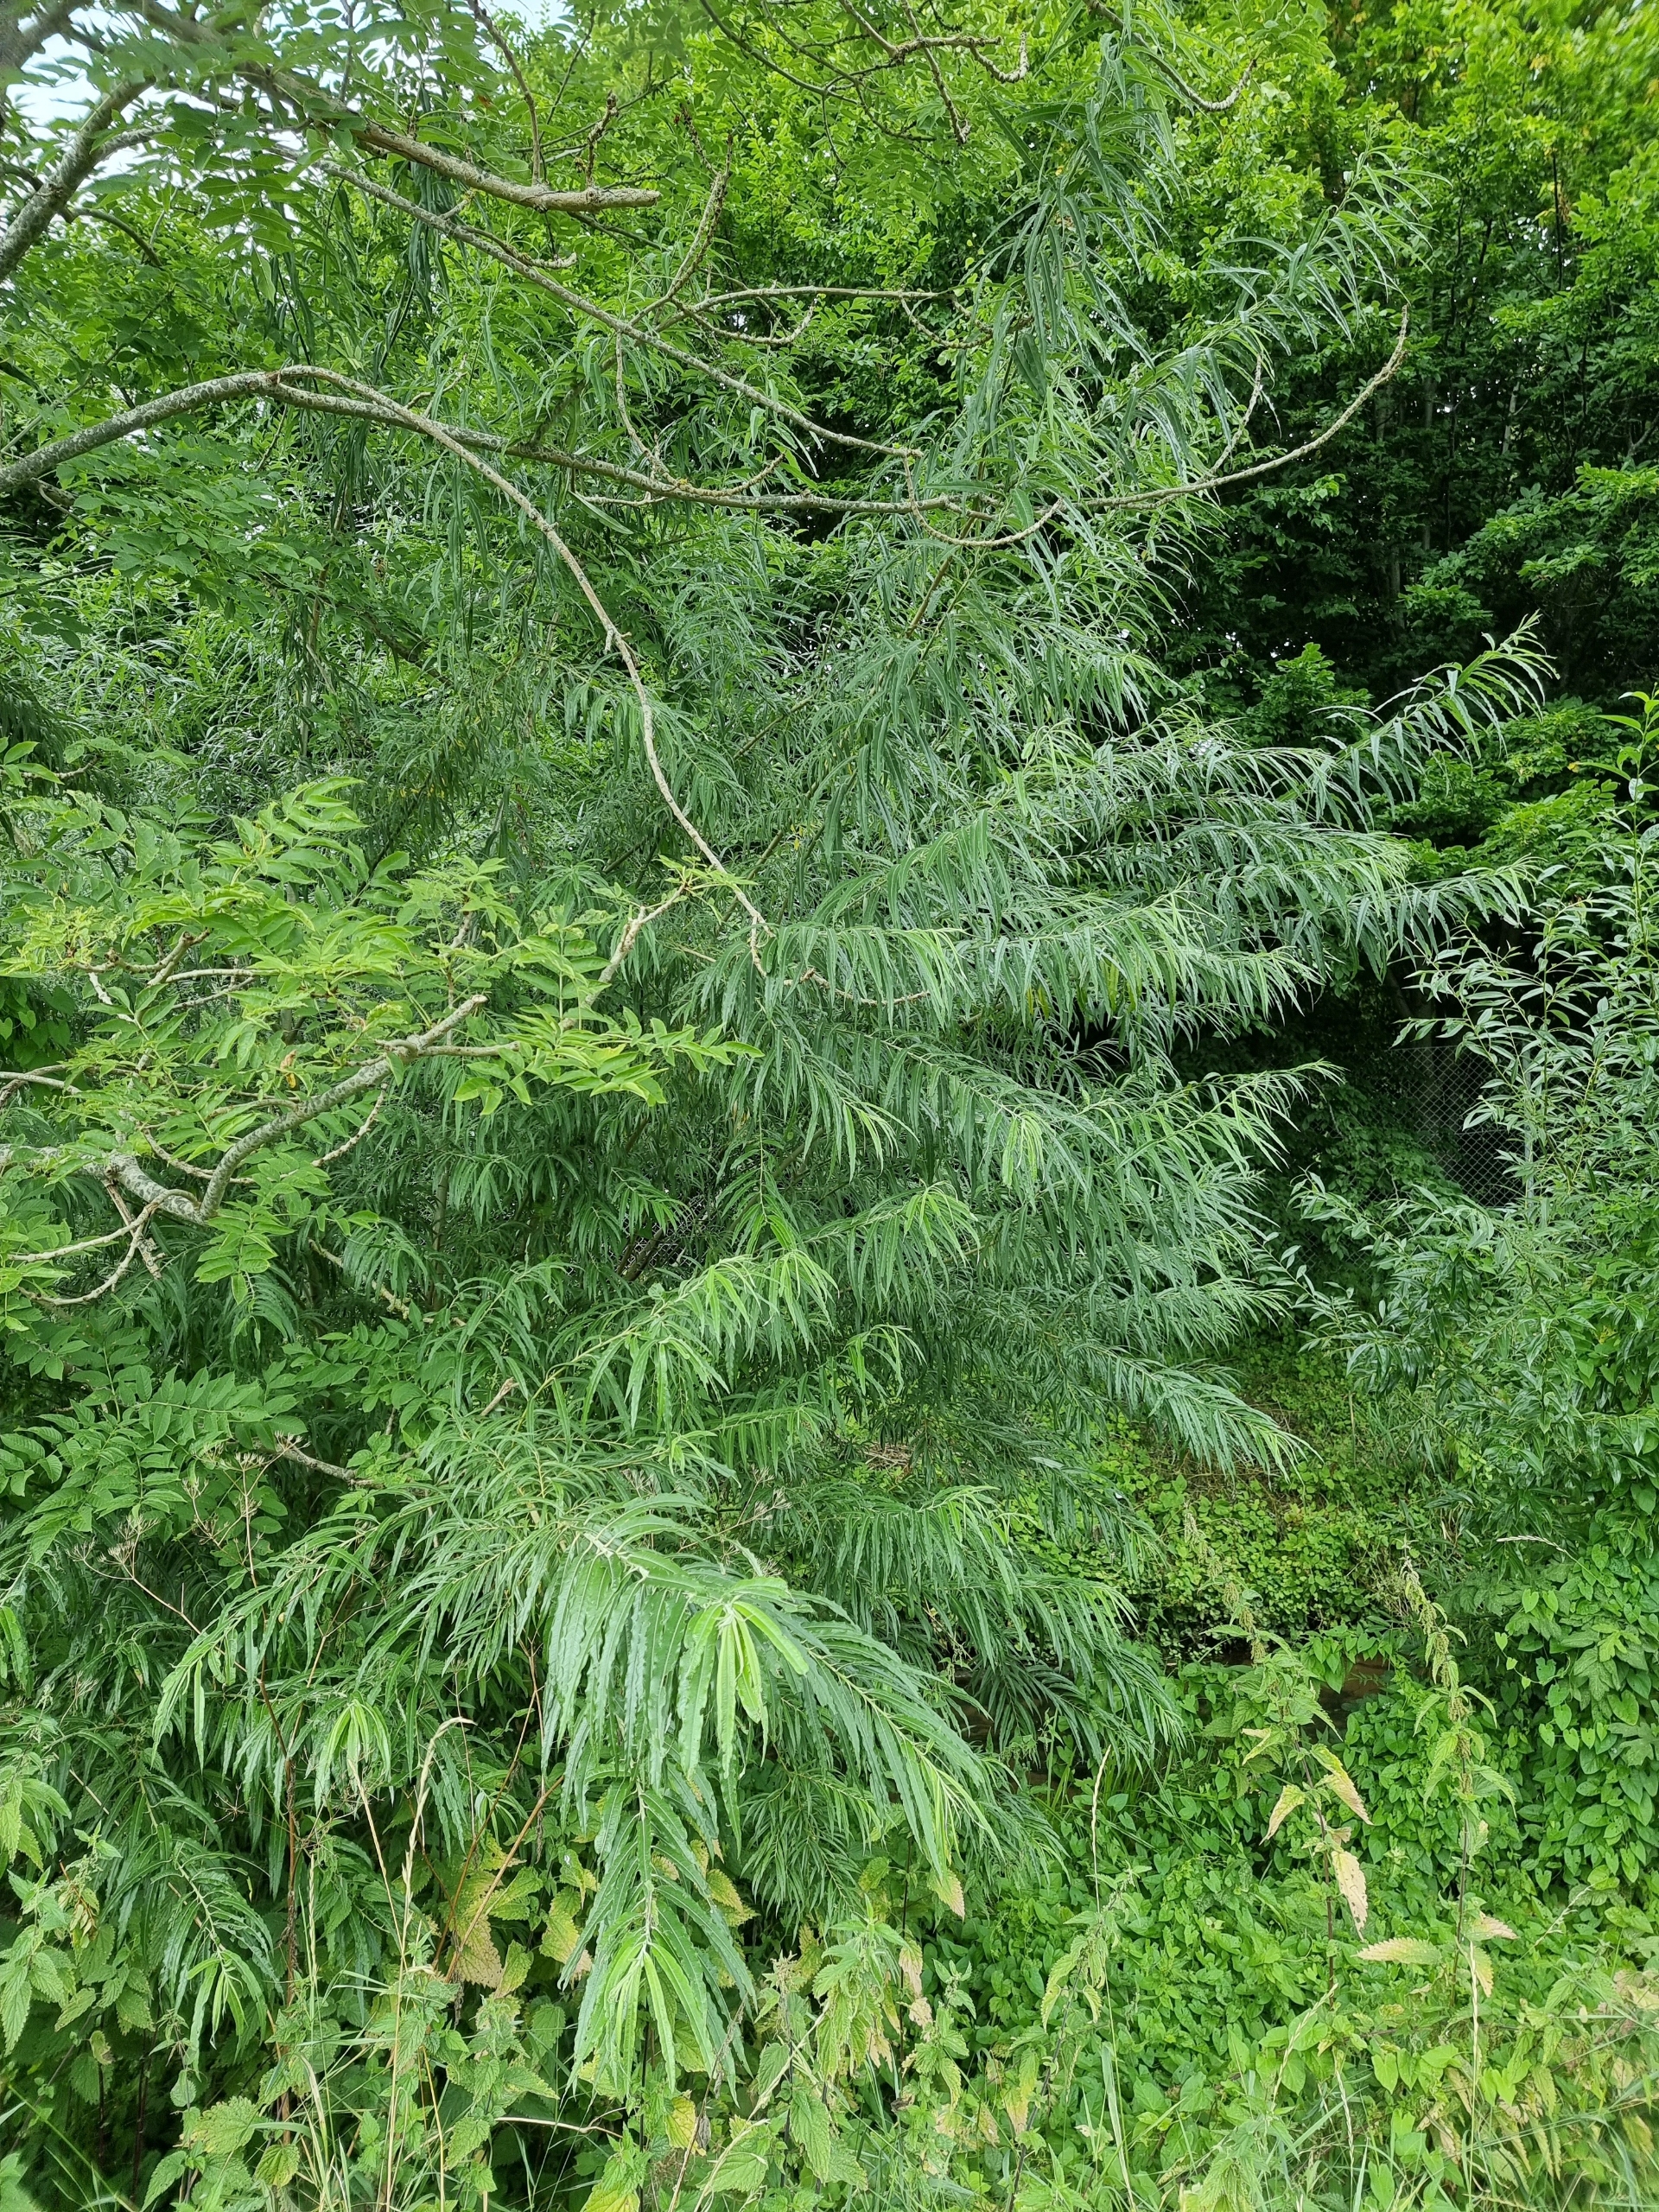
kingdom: Plantae
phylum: Tracheophyta
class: Magnoliopsida
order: Malpighiales
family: Salicaceae
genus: Salix
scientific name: Salix viminalis
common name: Bånd-pil
